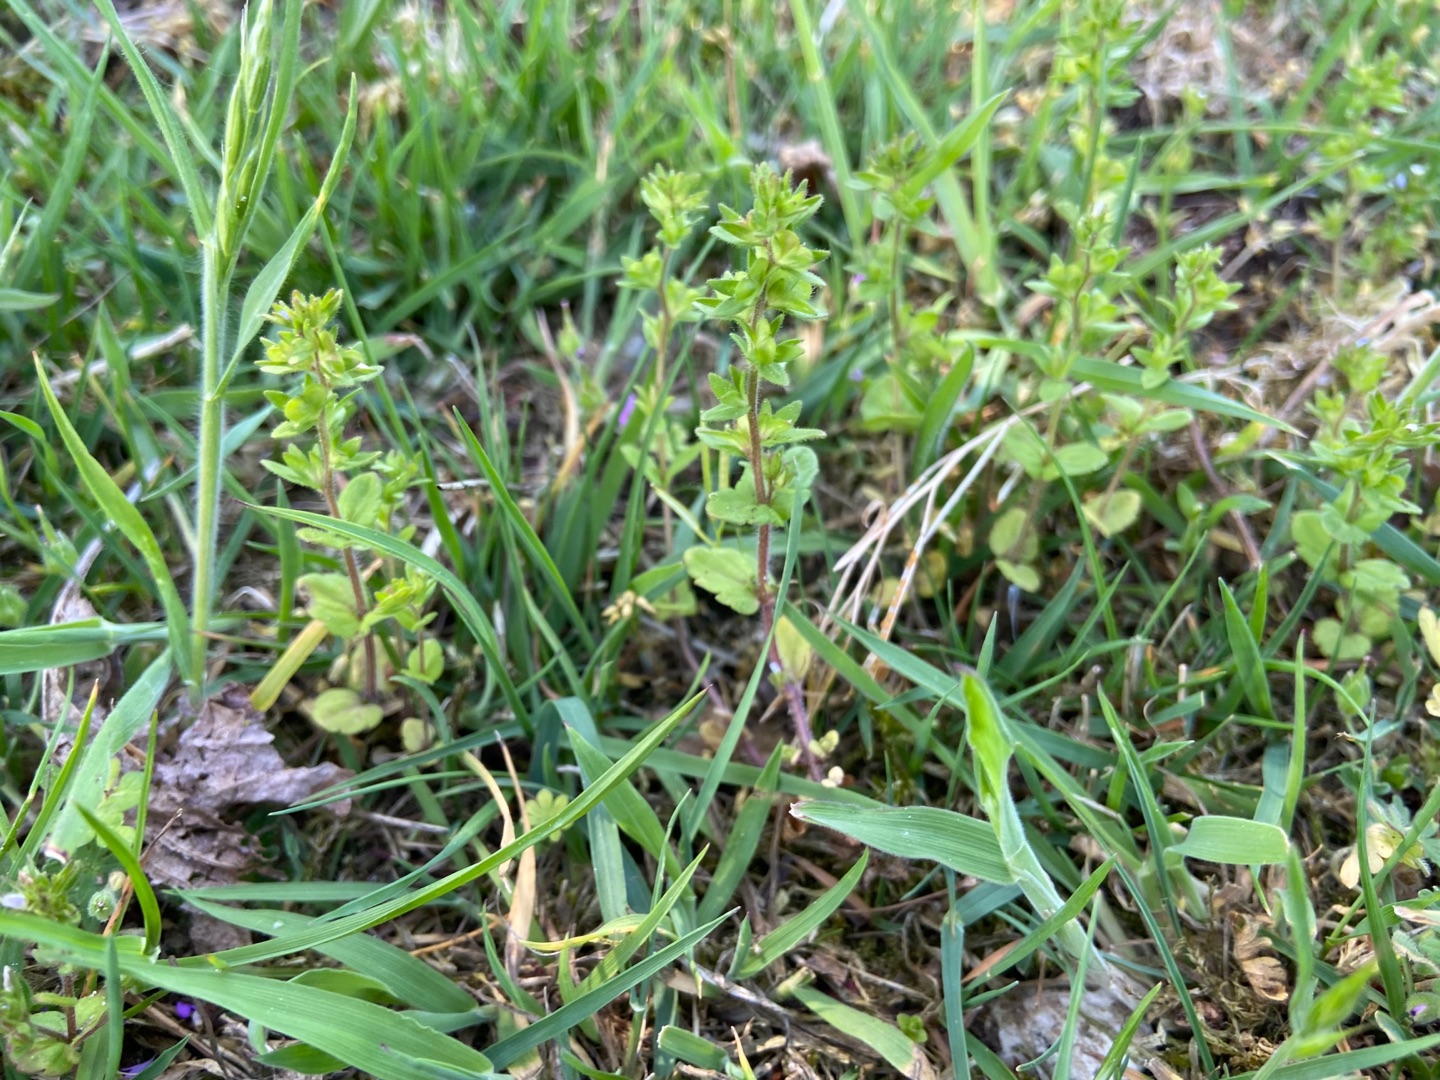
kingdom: Plantae
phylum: Tracheophyta
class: Magnoliopsida
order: Lamiales
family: Plantaginaceae
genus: Veronica
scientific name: Veronica arvensis
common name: Mark-ærenpris
